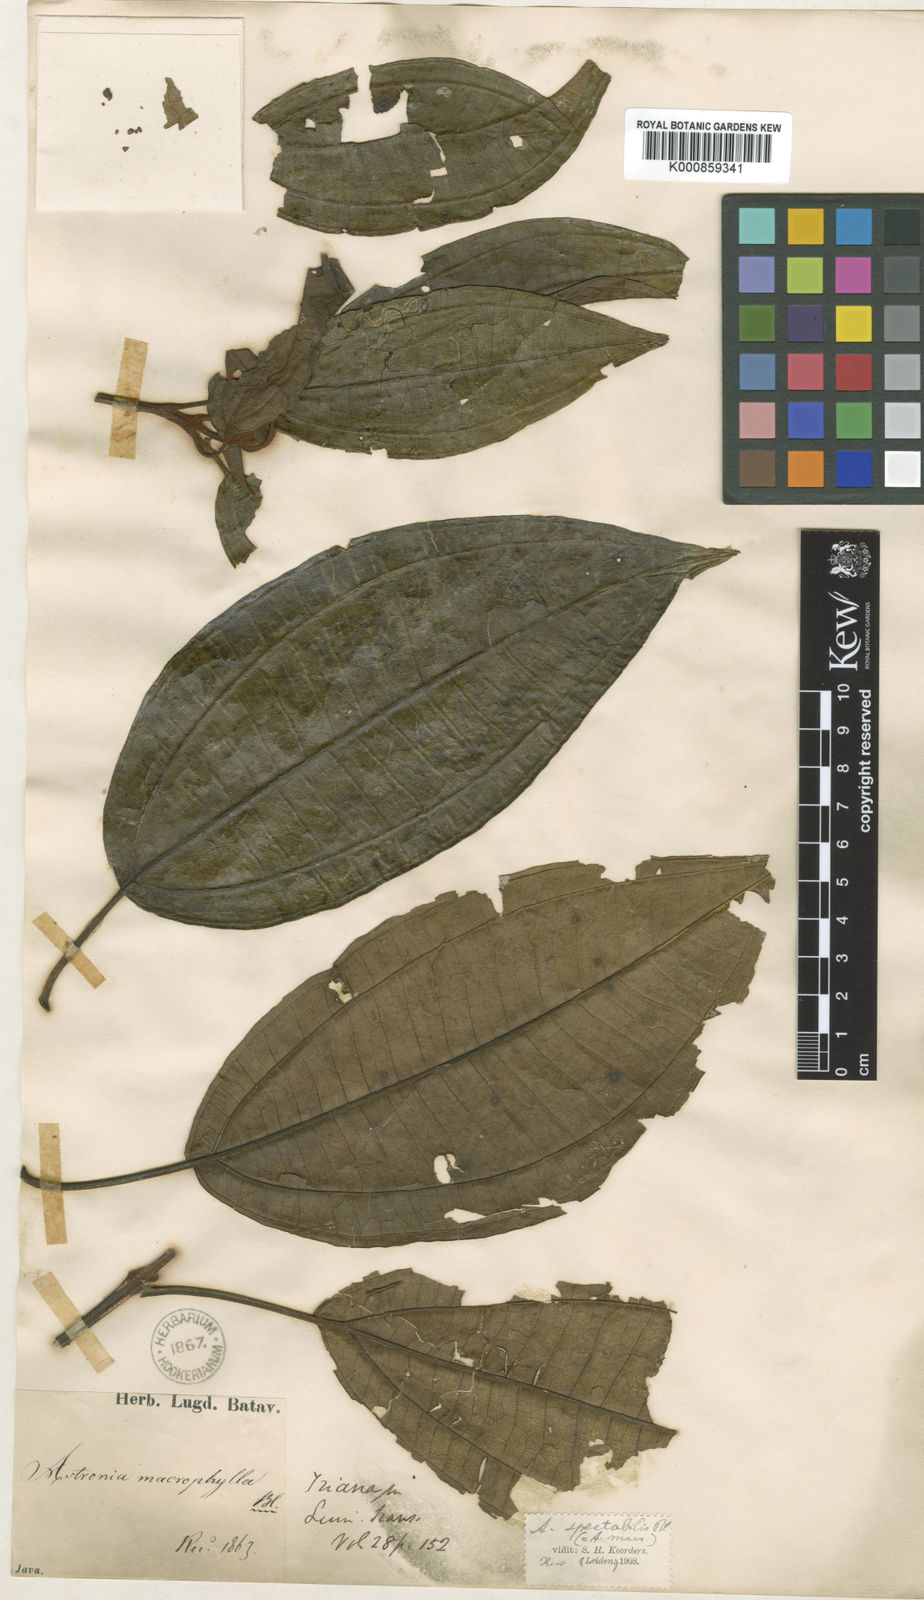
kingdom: Plantae
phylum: Tracheophyta
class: Magnoliopsida
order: Myrtales
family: Melastomataceae
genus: Astronia
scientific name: Astronia spectabilis
